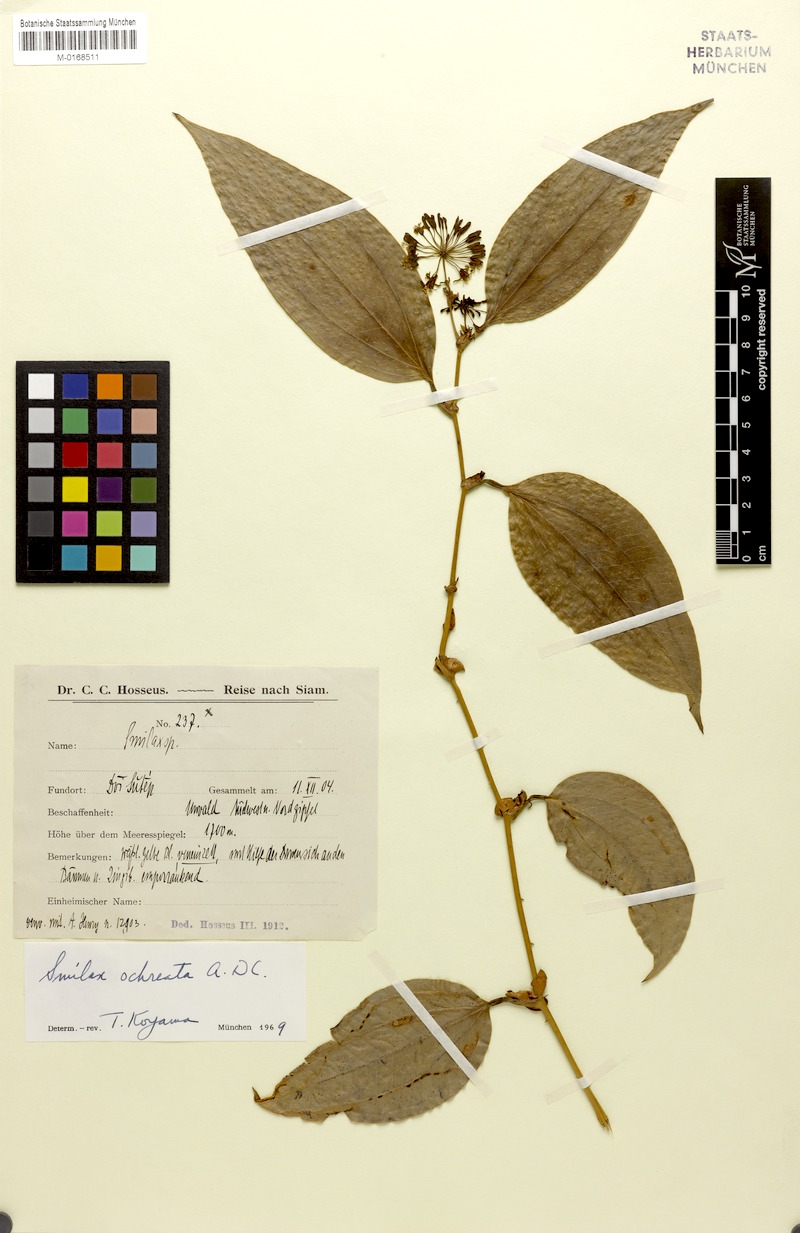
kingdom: Plantae
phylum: Tracheophyta
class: Liliopsida
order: Liliales
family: Smilacaceae
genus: Smilax
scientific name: Smilax ocreata
